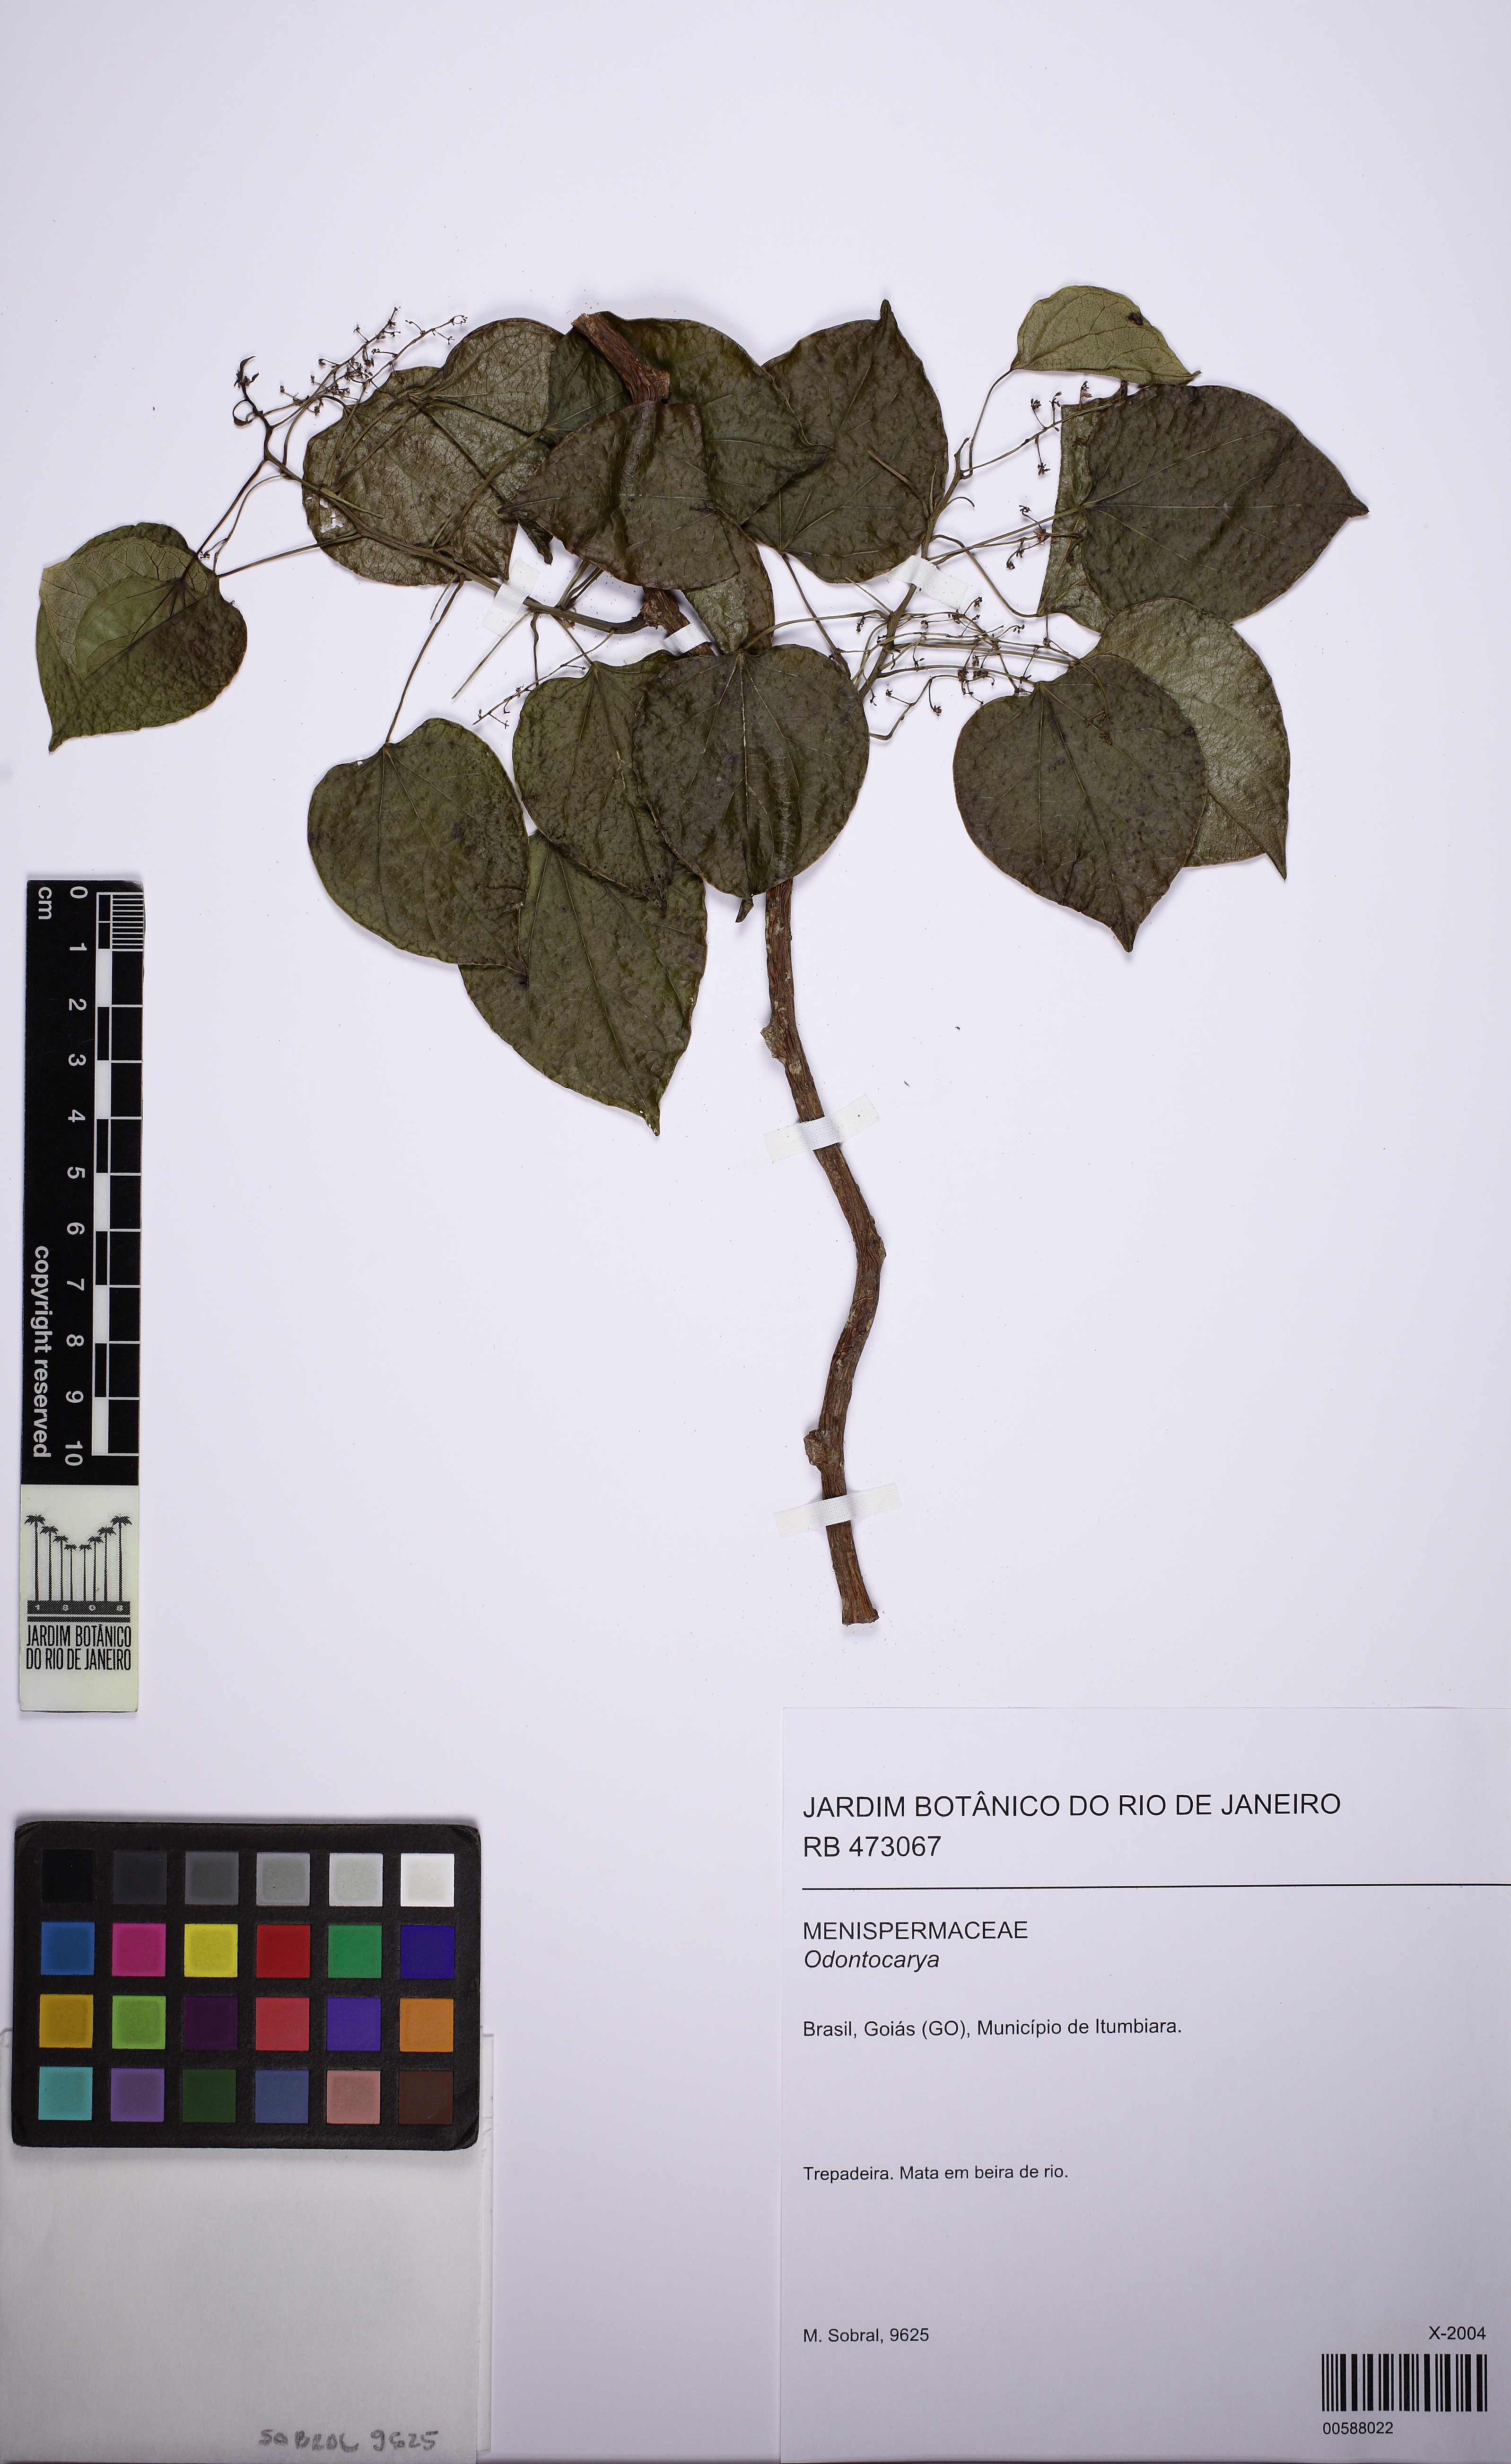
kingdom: Plantae
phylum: Tracheophyta
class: Magnoliopsida
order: Ranunculales
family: Menispermaceae
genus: Odontocarya
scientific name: Odontocarya
